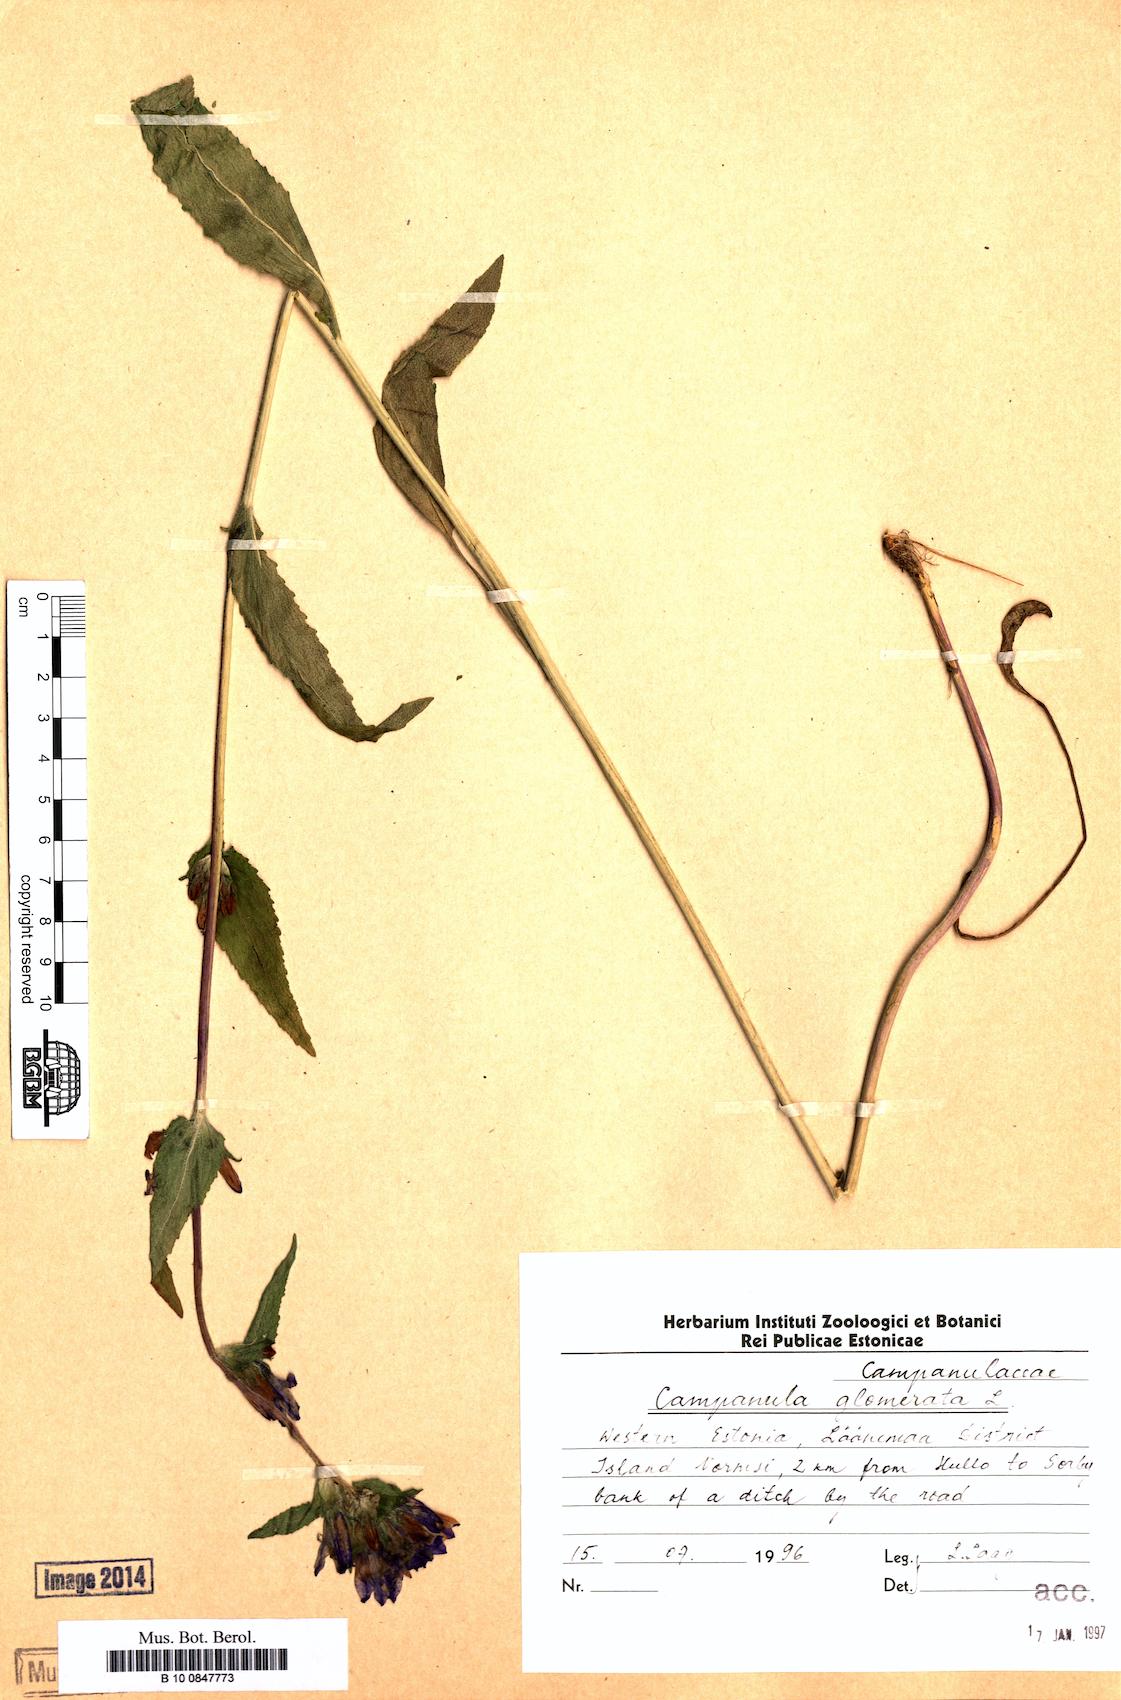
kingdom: Plantae
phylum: Tracheophyta
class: Magnoliopsida
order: Asterales
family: Campanulaceae
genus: Campanula
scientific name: Campanula glomerata
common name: Clustered bellflower
